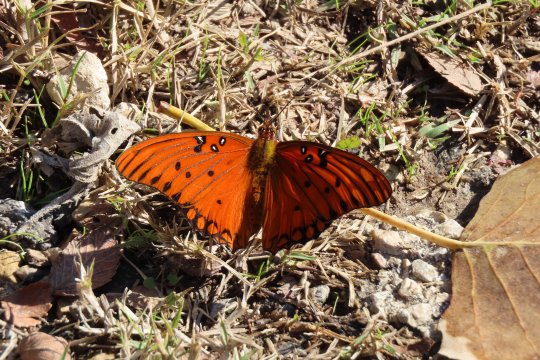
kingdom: Animalia
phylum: Arthropoda
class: Insecta
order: Lepidoptera
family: Nymphalidae
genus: Dione
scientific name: Dione vanillae
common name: Gulf Fritillary
